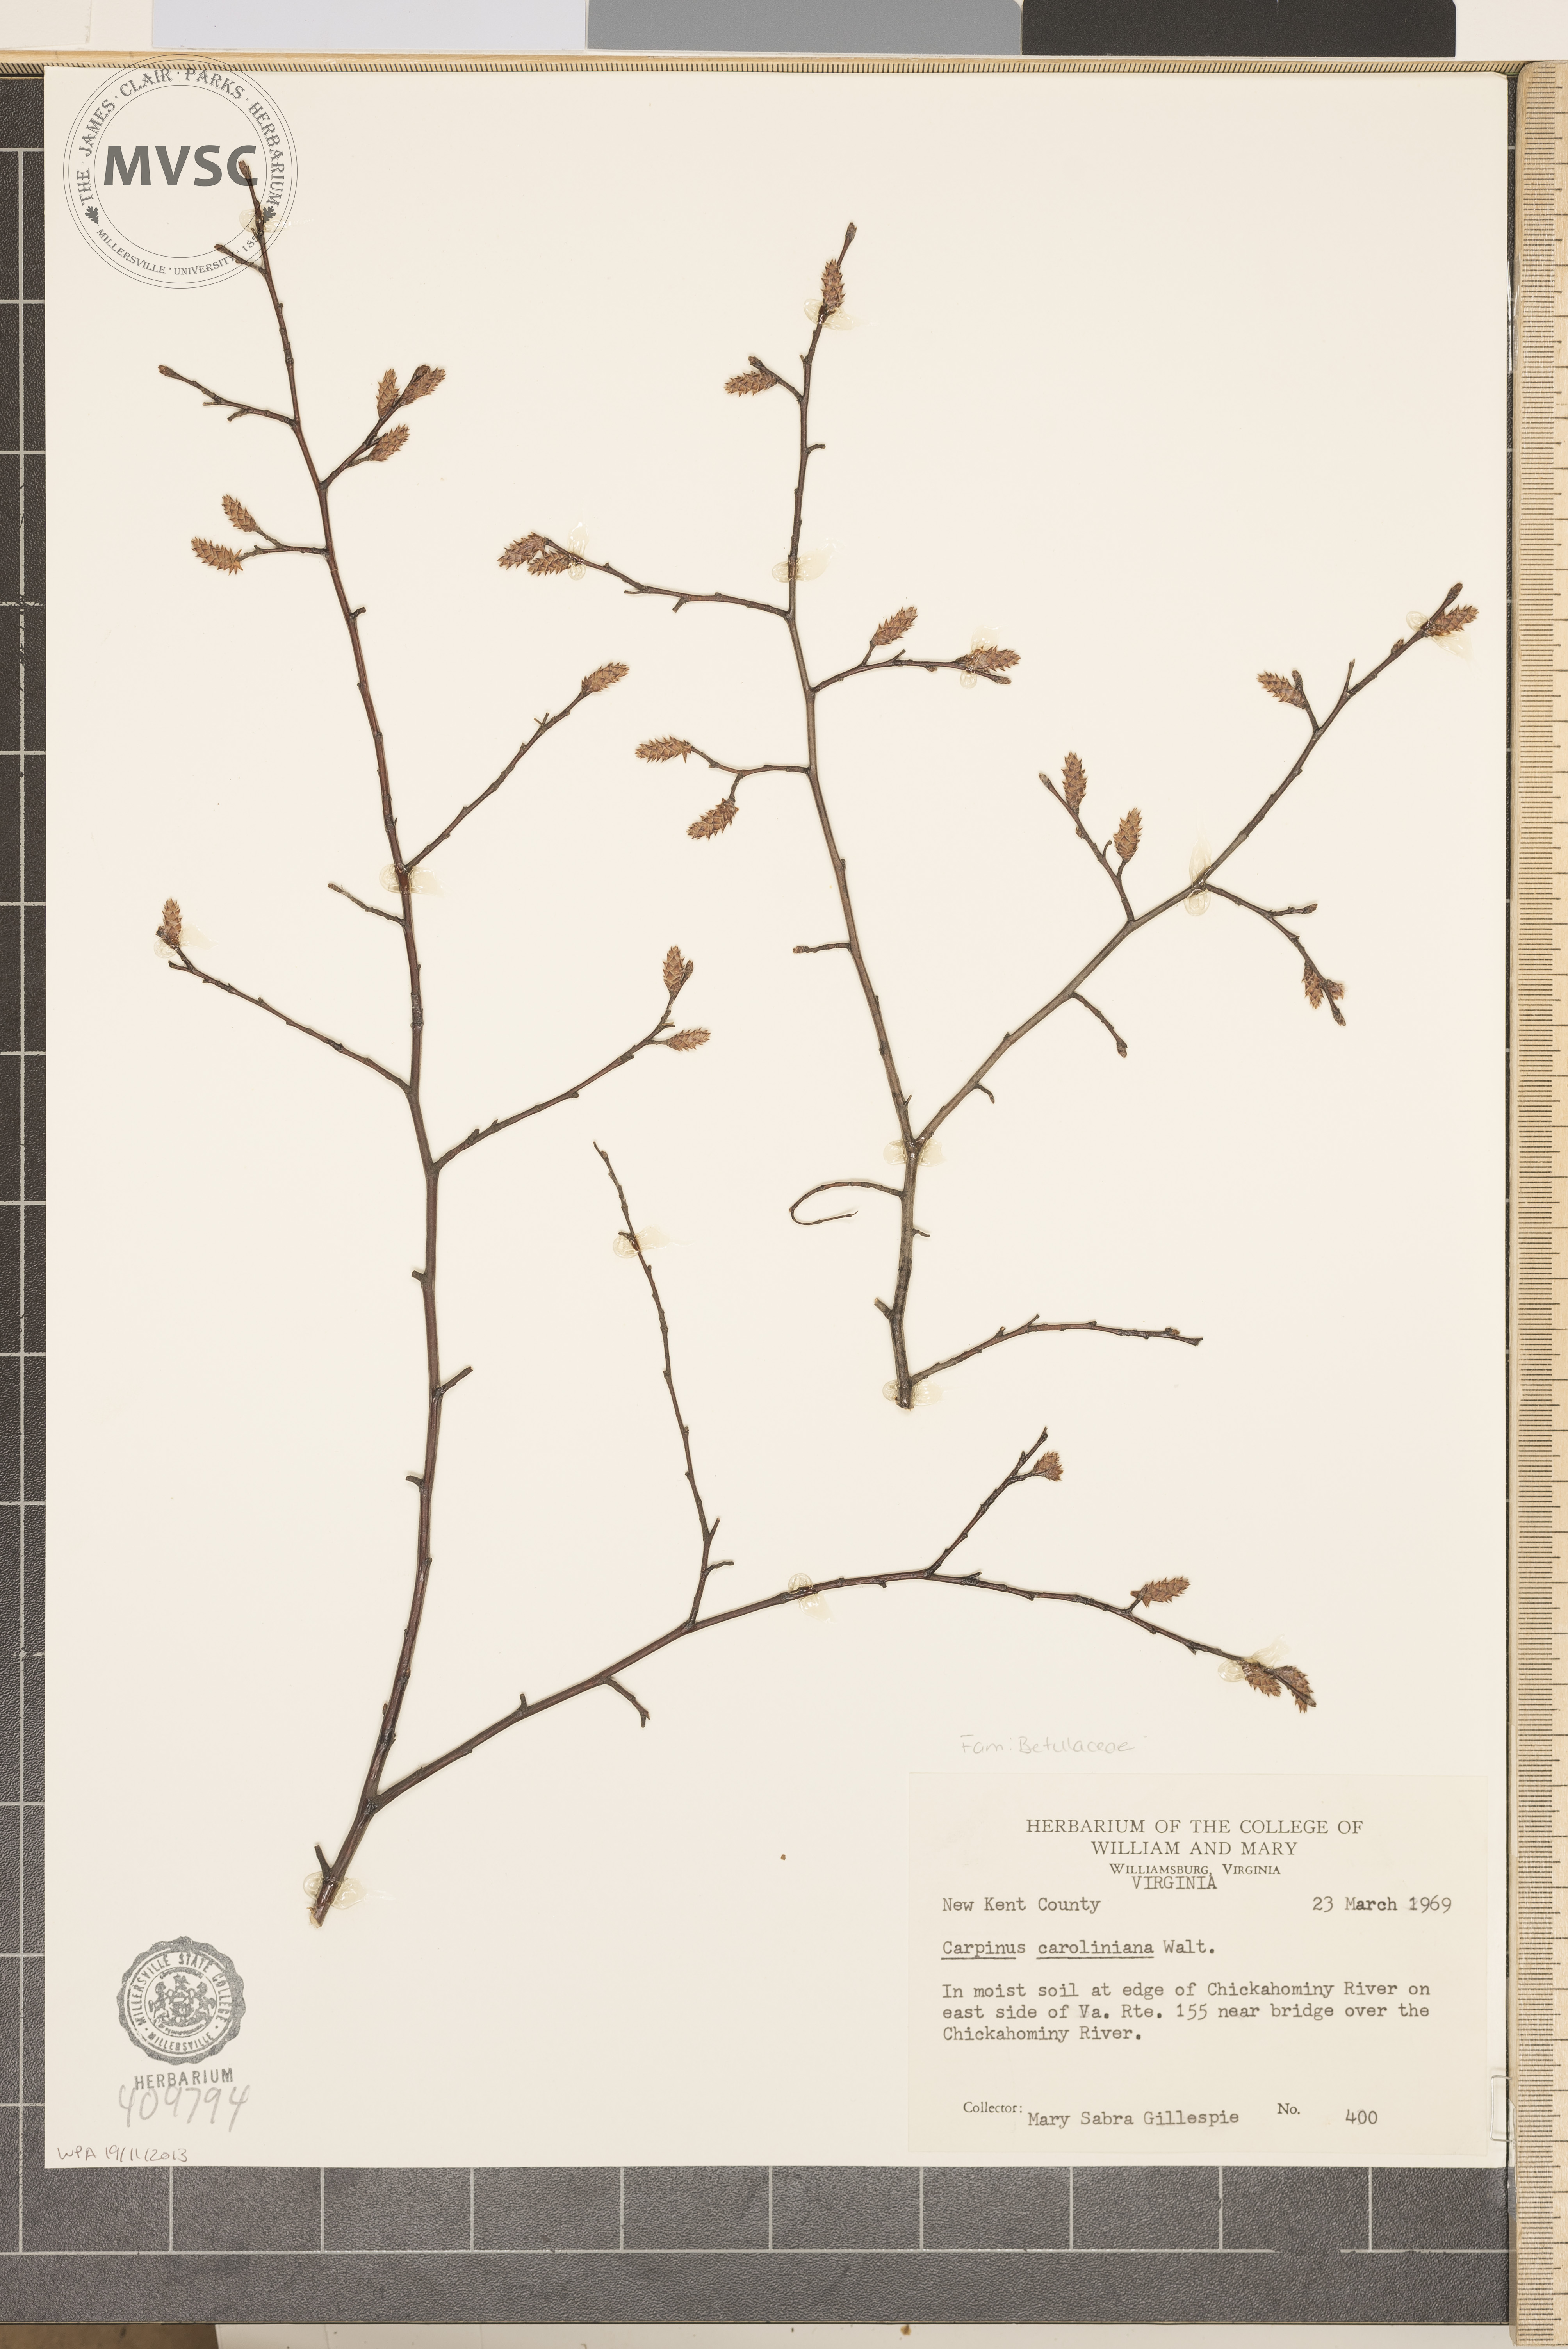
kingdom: Plantae
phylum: Tracheophyta
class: Magnoliopsida
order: Fagales
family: Betulaceae
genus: Carpinus
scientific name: Carpinus caroliniana
